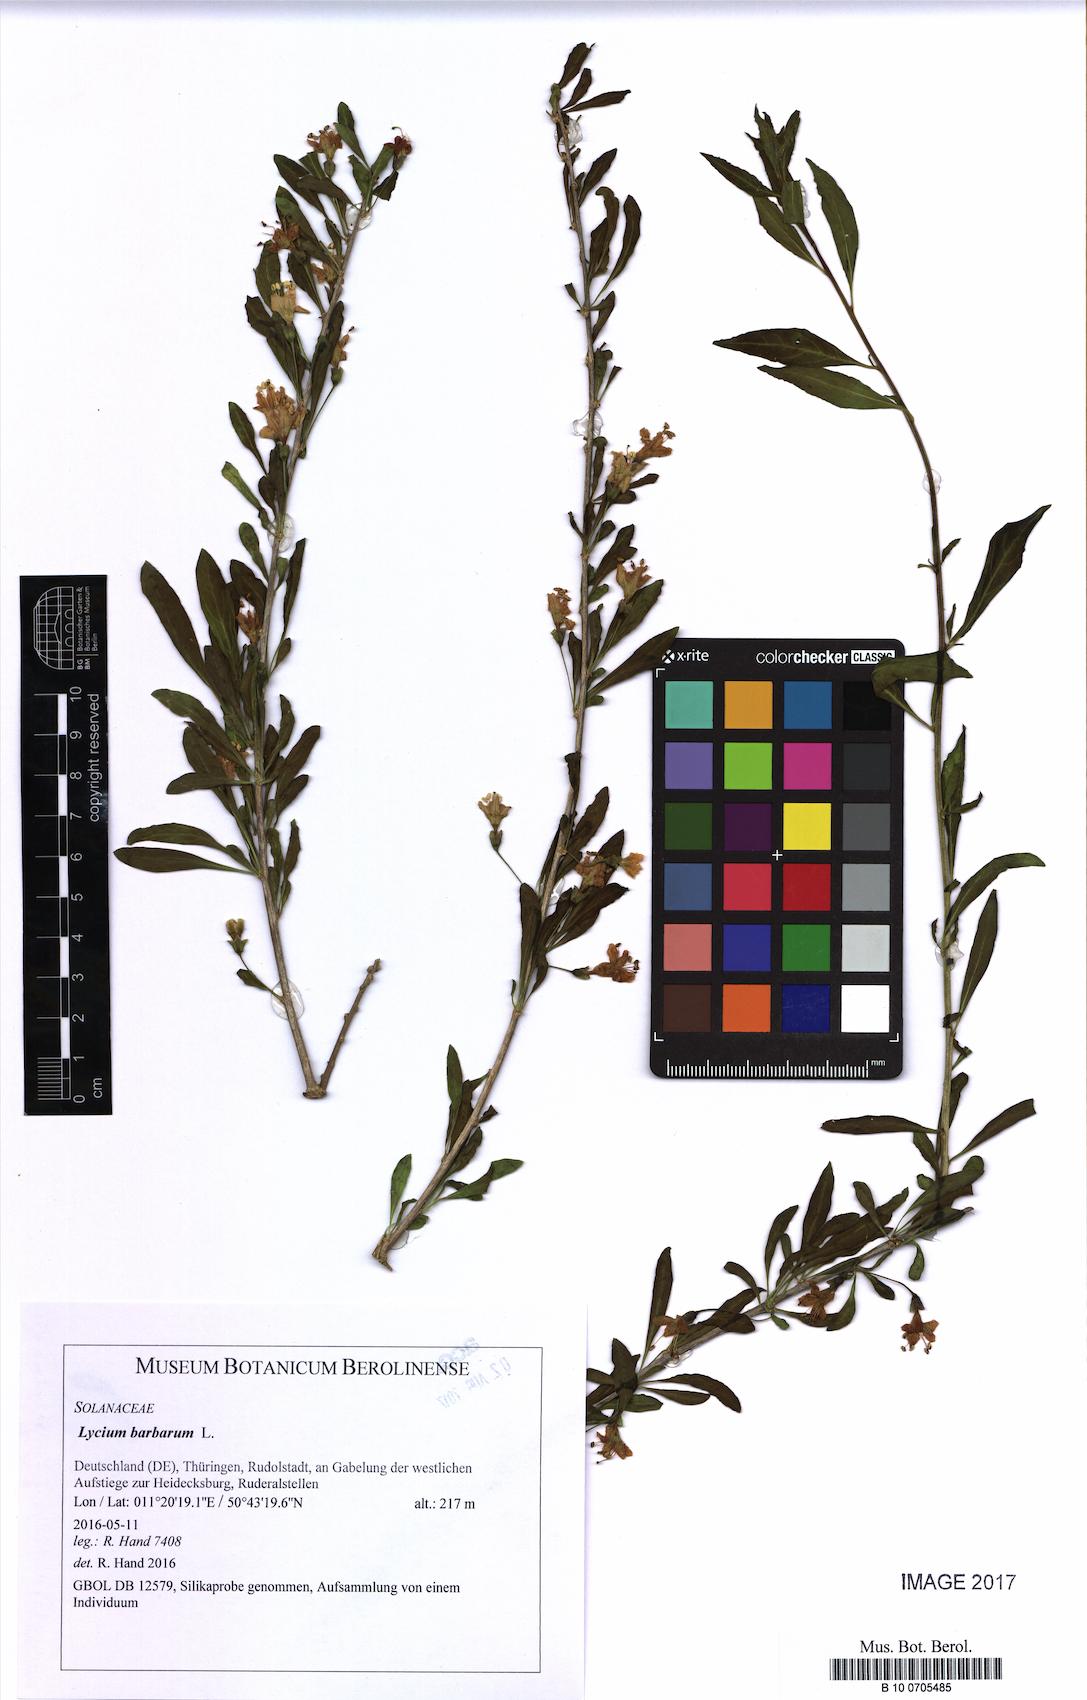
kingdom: Plantae
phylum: Tracheophyta
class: Magnoliopsida
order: Solanales
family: Solanaceae
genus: Lycium
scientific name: Lycium barbarum
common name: Duke of argyll's teaplant
